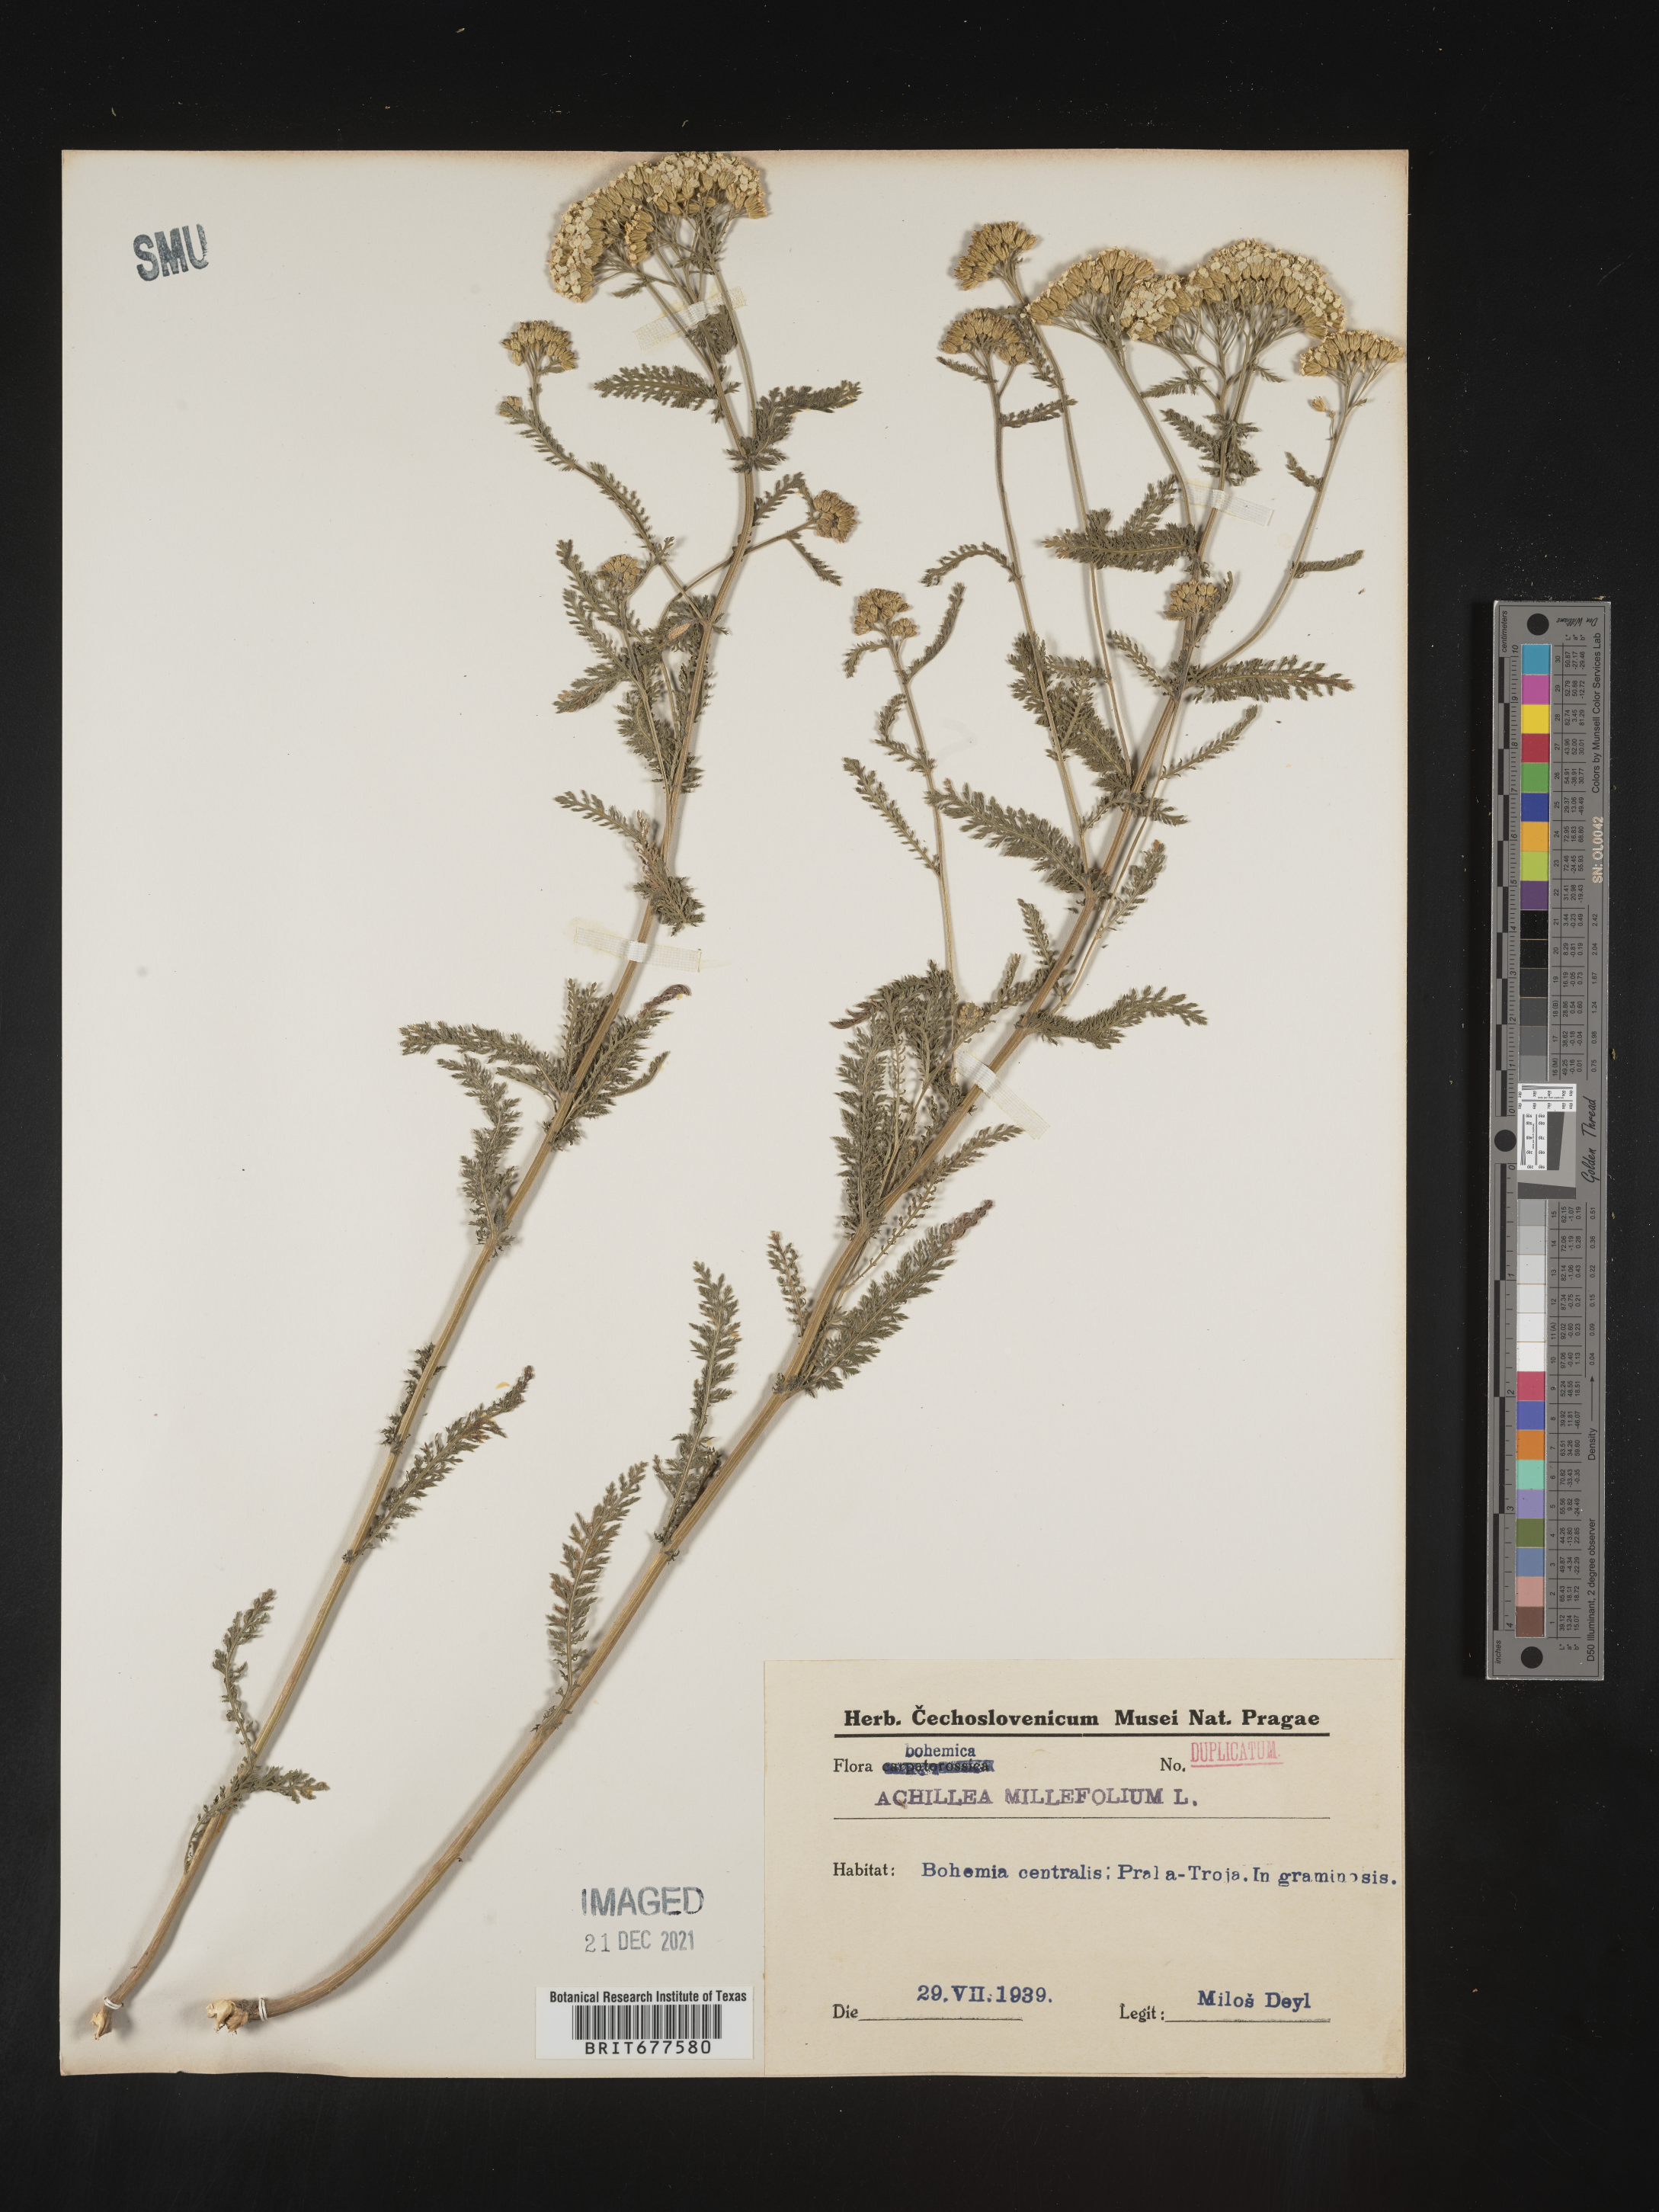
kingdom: Plantae
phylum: Tracheophyta
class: Magnoliopsida
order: Asterales
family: Asteraceae
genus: Achillea
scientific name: Achillea millefolium
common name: Yarrow
